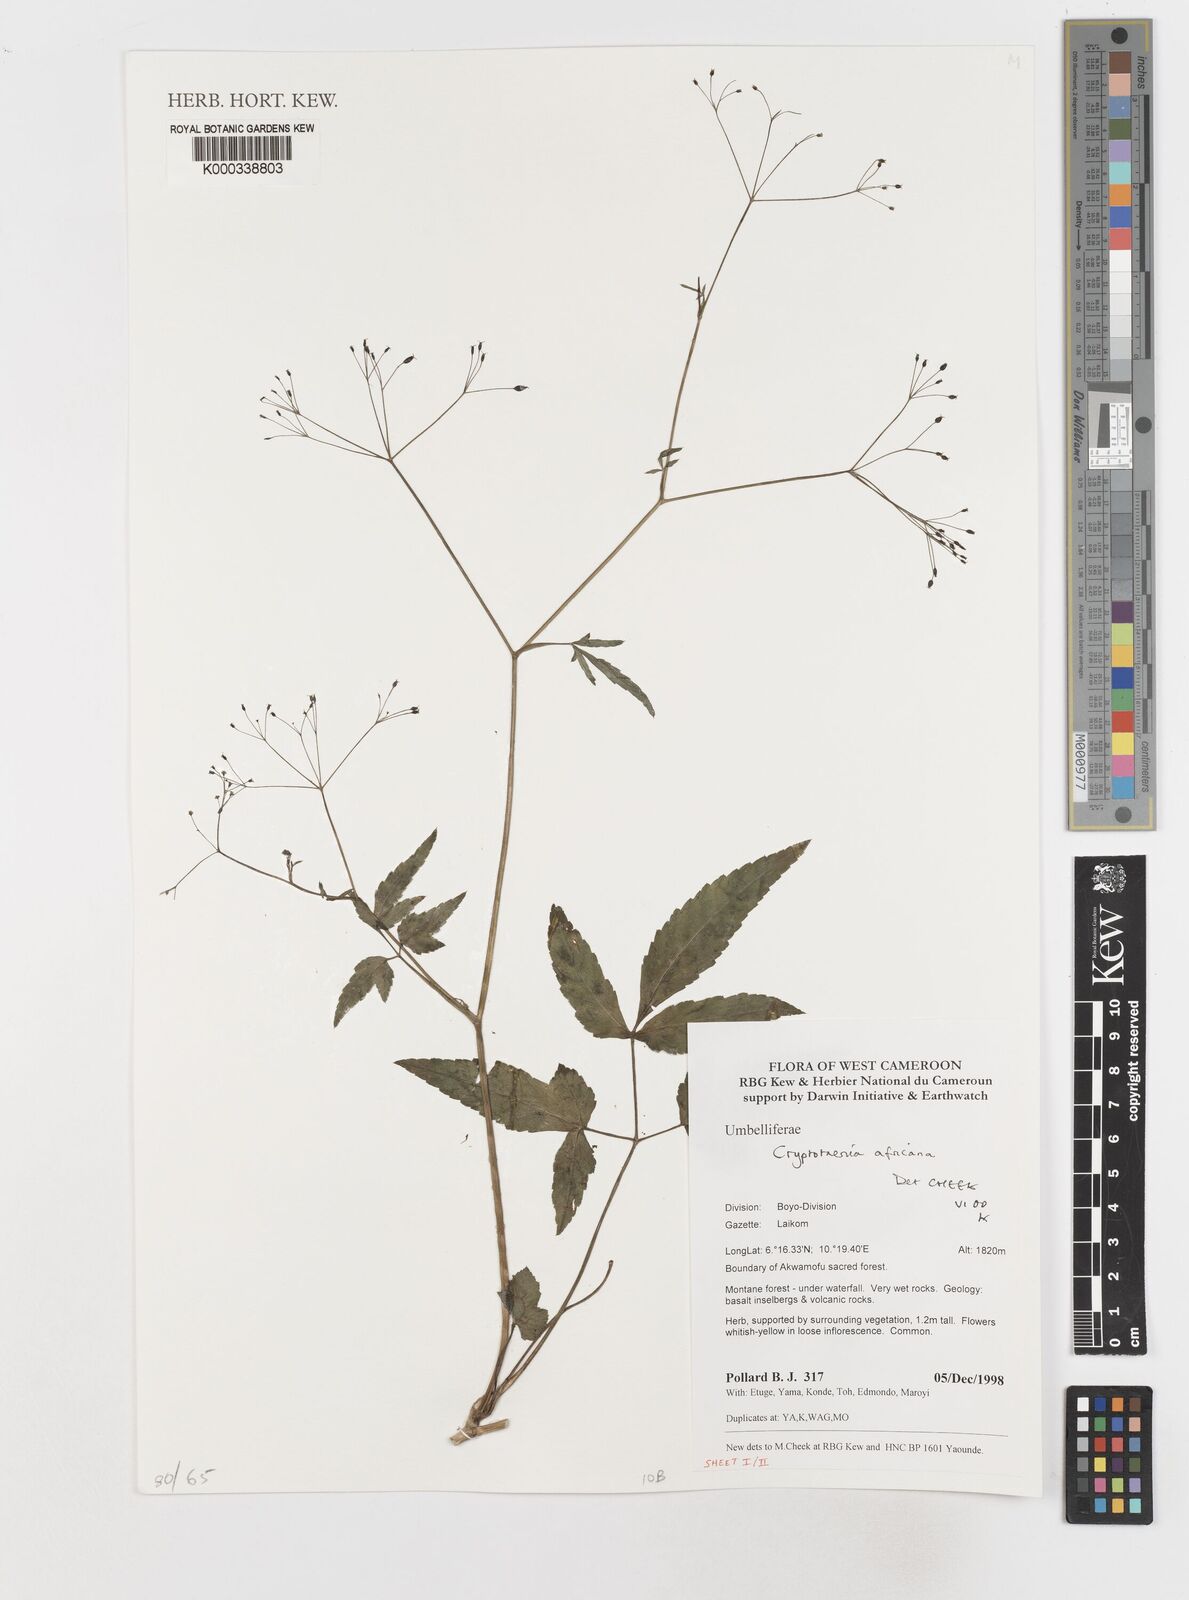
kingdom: Plantae
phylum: Tracheophyta
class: Magnoliopsida
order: Apiales
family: Apiaceae
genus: Cryptotaenia
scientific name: Cryptotaenia africana
